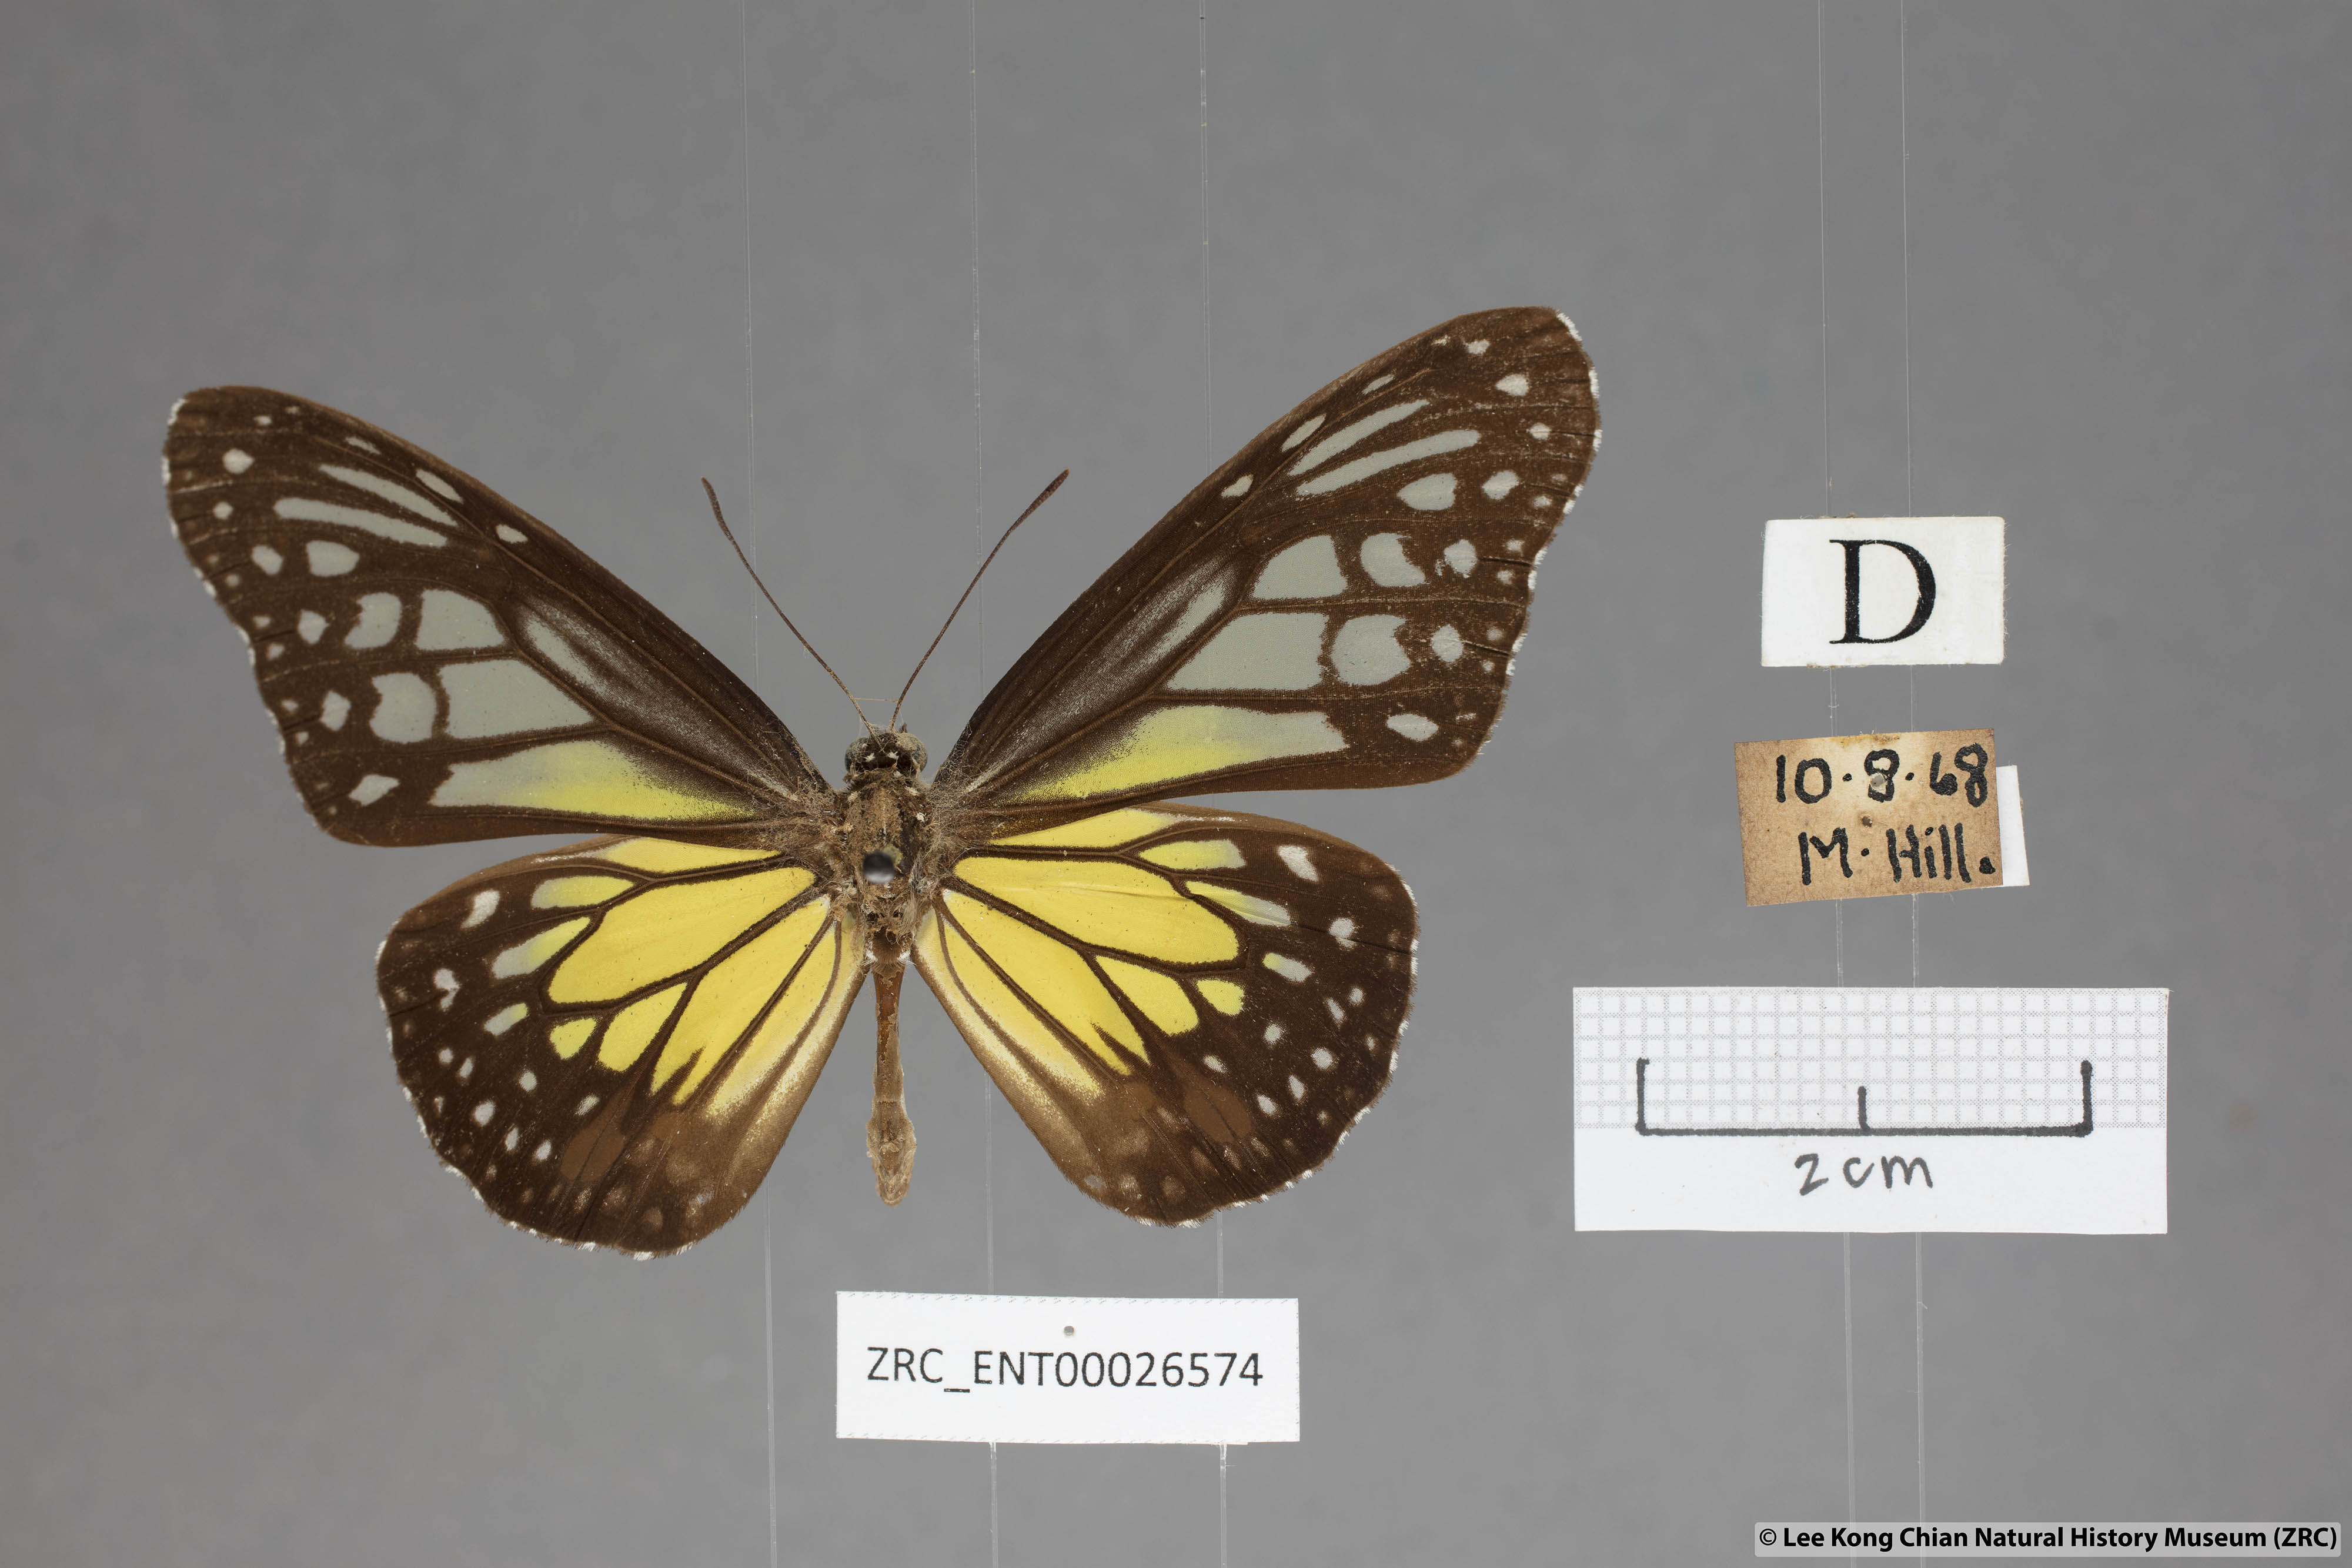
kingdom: Animalia
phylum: Arthropoda
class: Insecta
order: Lepidoptera
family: Nymphalidae
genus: Parantica
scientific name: Parantica aspasia
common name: Yellow glassy tiger
